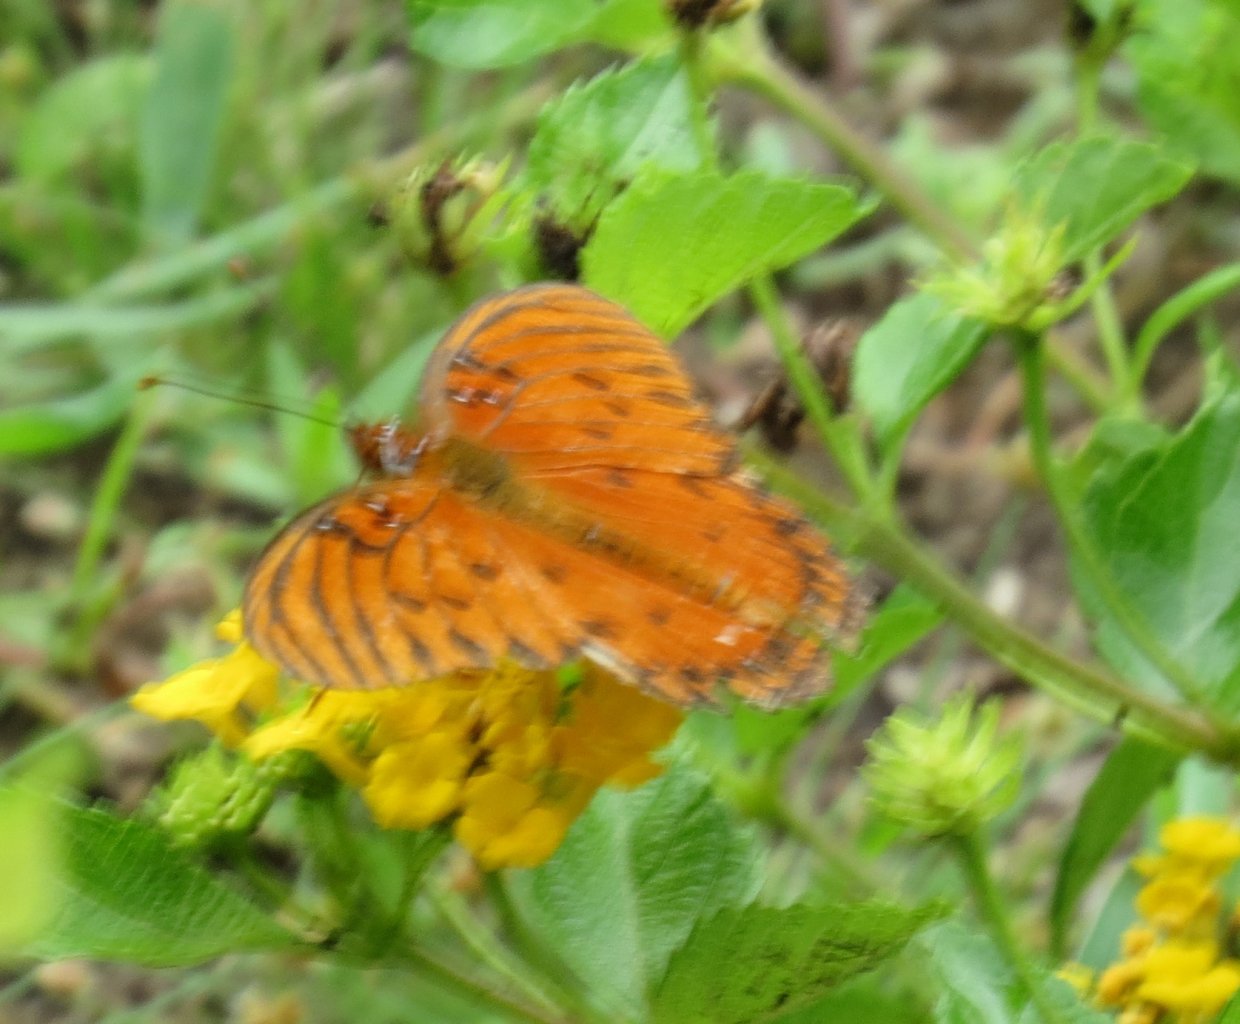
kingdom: Animalia
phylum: Arthropoda
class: Insecta
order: Lepidoptera
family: Nymphalidae
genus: Dione
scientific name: Dione vanillae
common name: Gulf Fritillary
